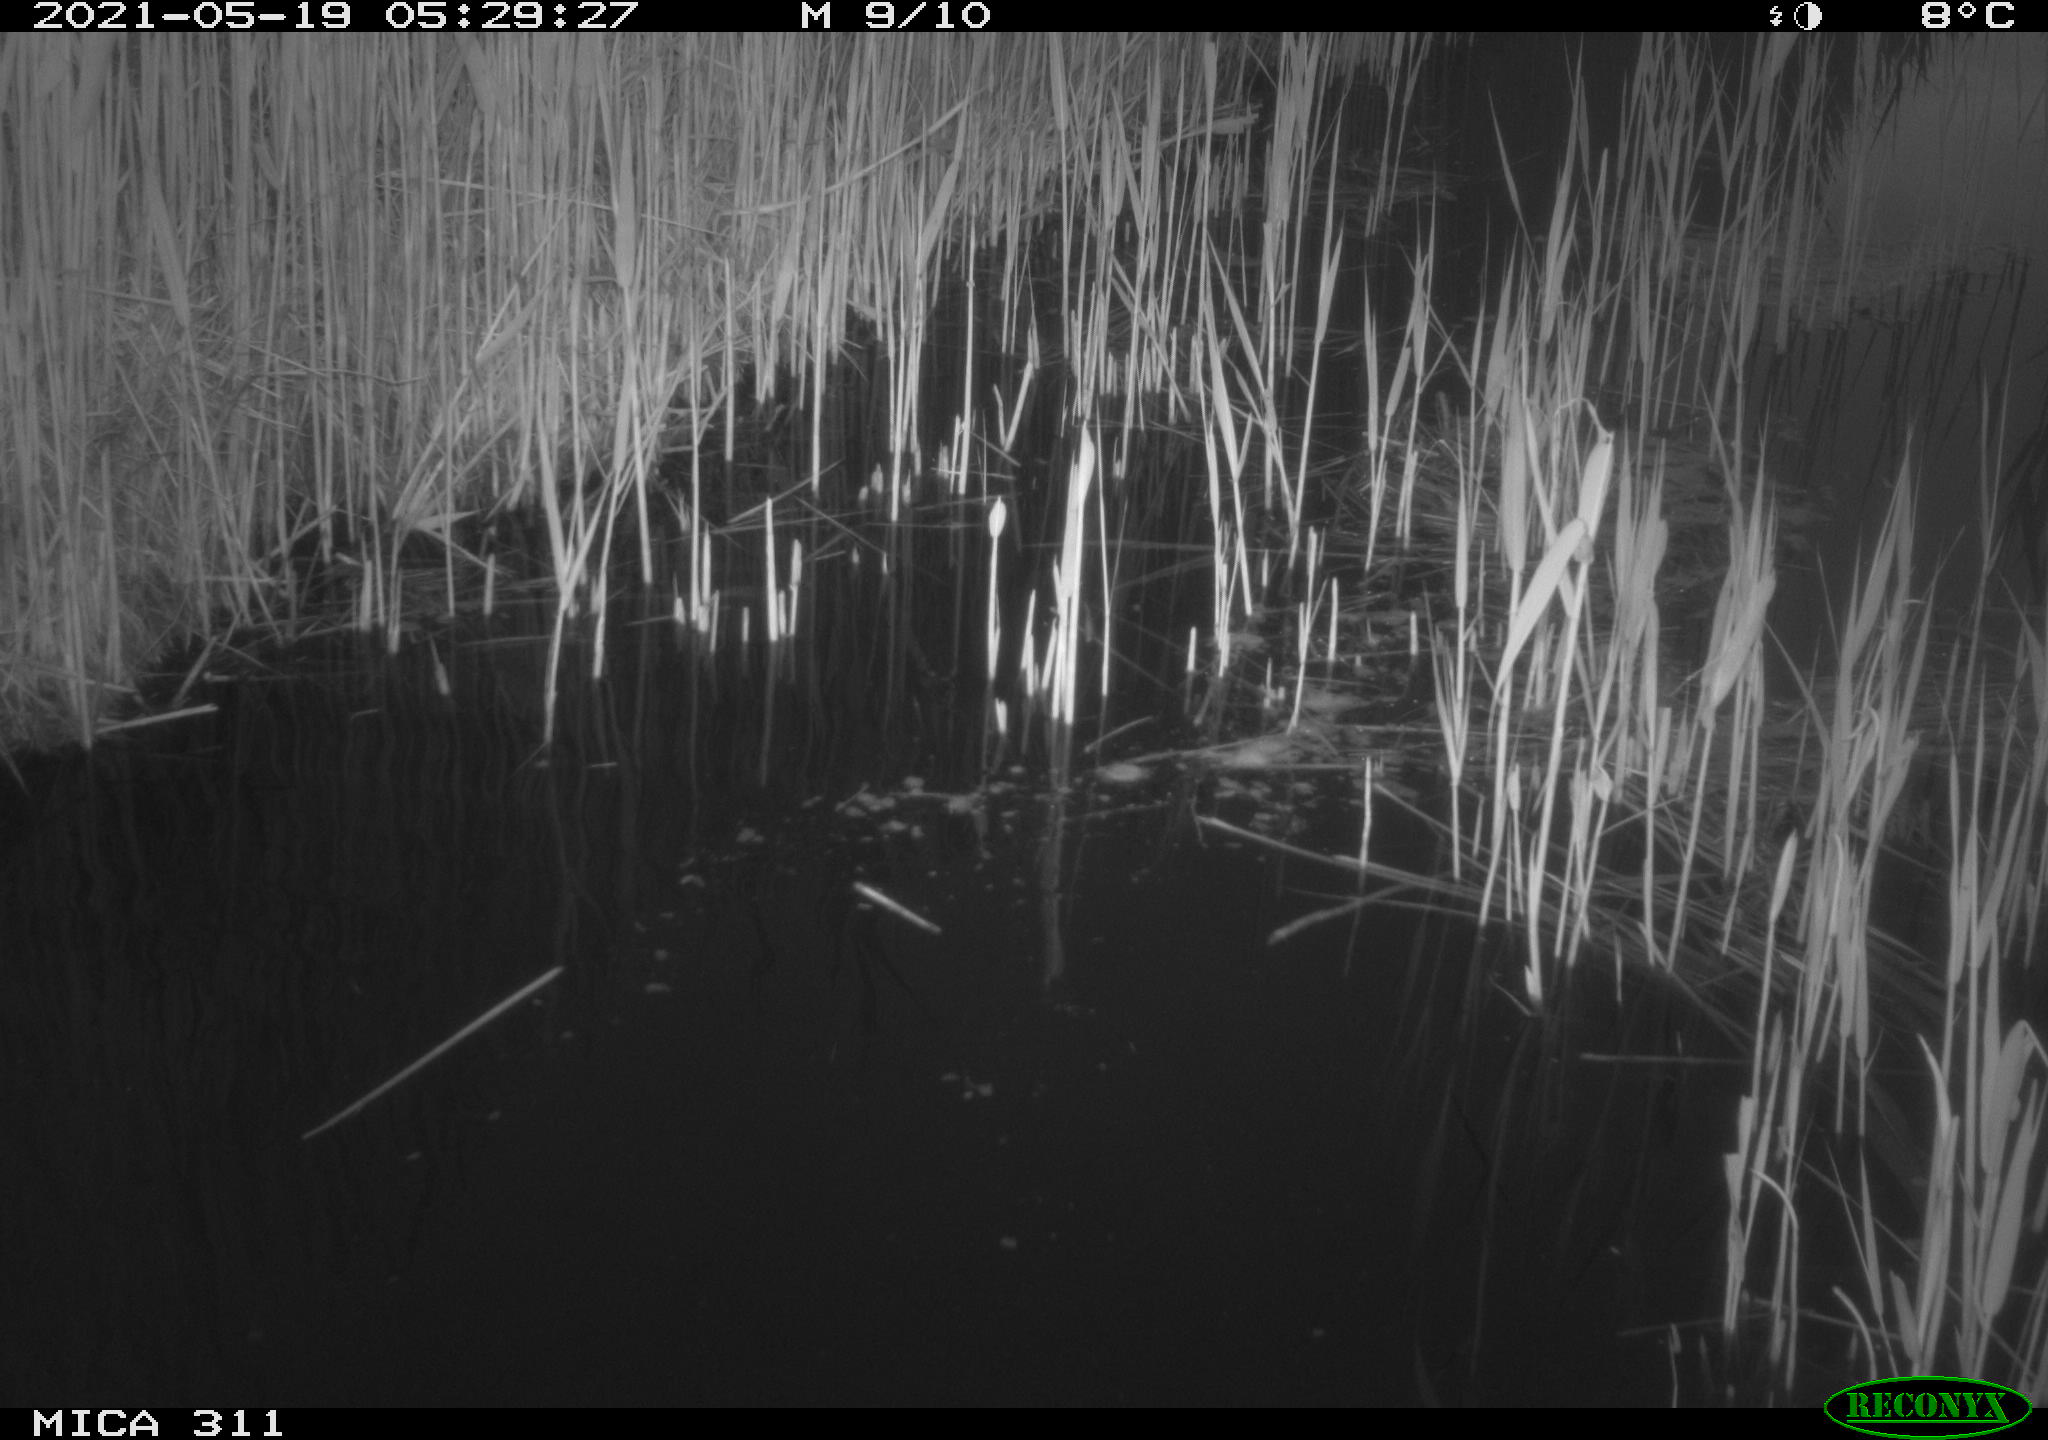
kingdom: Animalia
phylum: Chordata
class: Aves
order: Gruiformes
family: Rallidae
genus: Gallinula
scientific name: Gallinula chloropus
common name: Common moorhen
